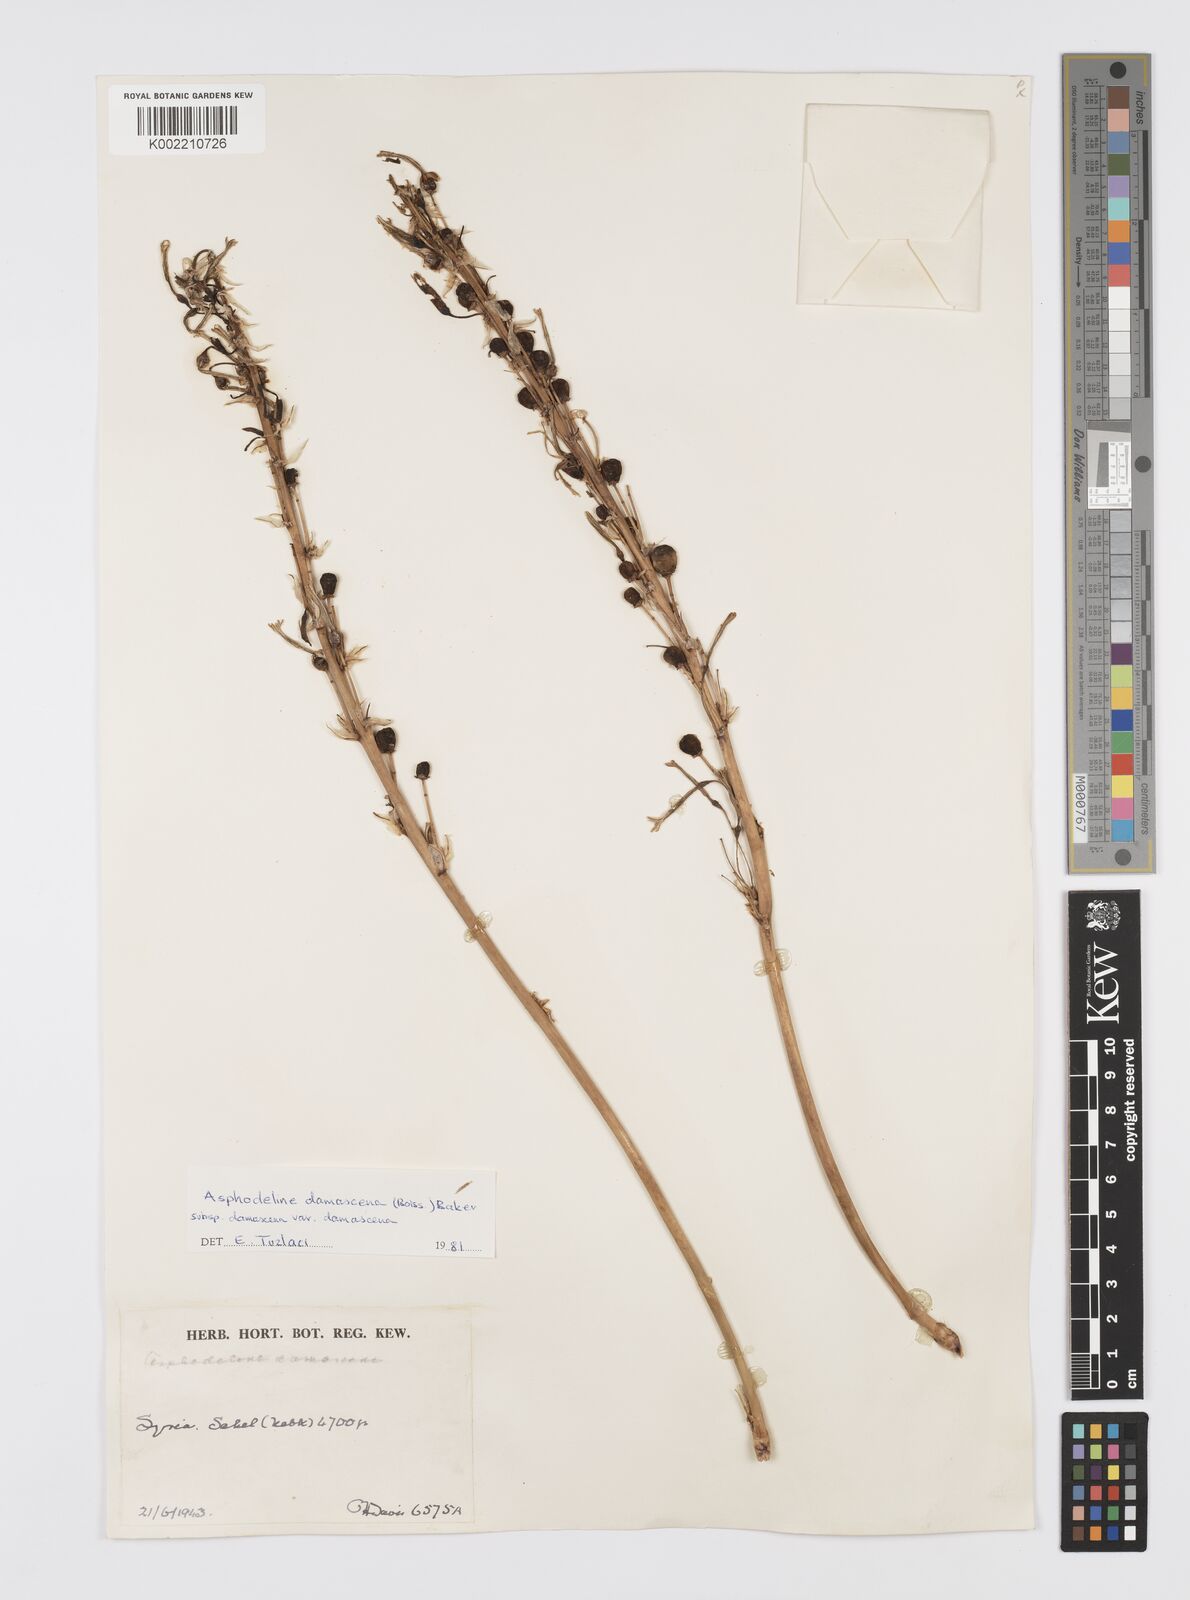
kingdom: Plantae
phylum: Tracheophyta
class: Liliopsida
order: Asparagales
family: Asphodelaceae
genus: Asphodeline
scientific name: Asphodeline damascena
